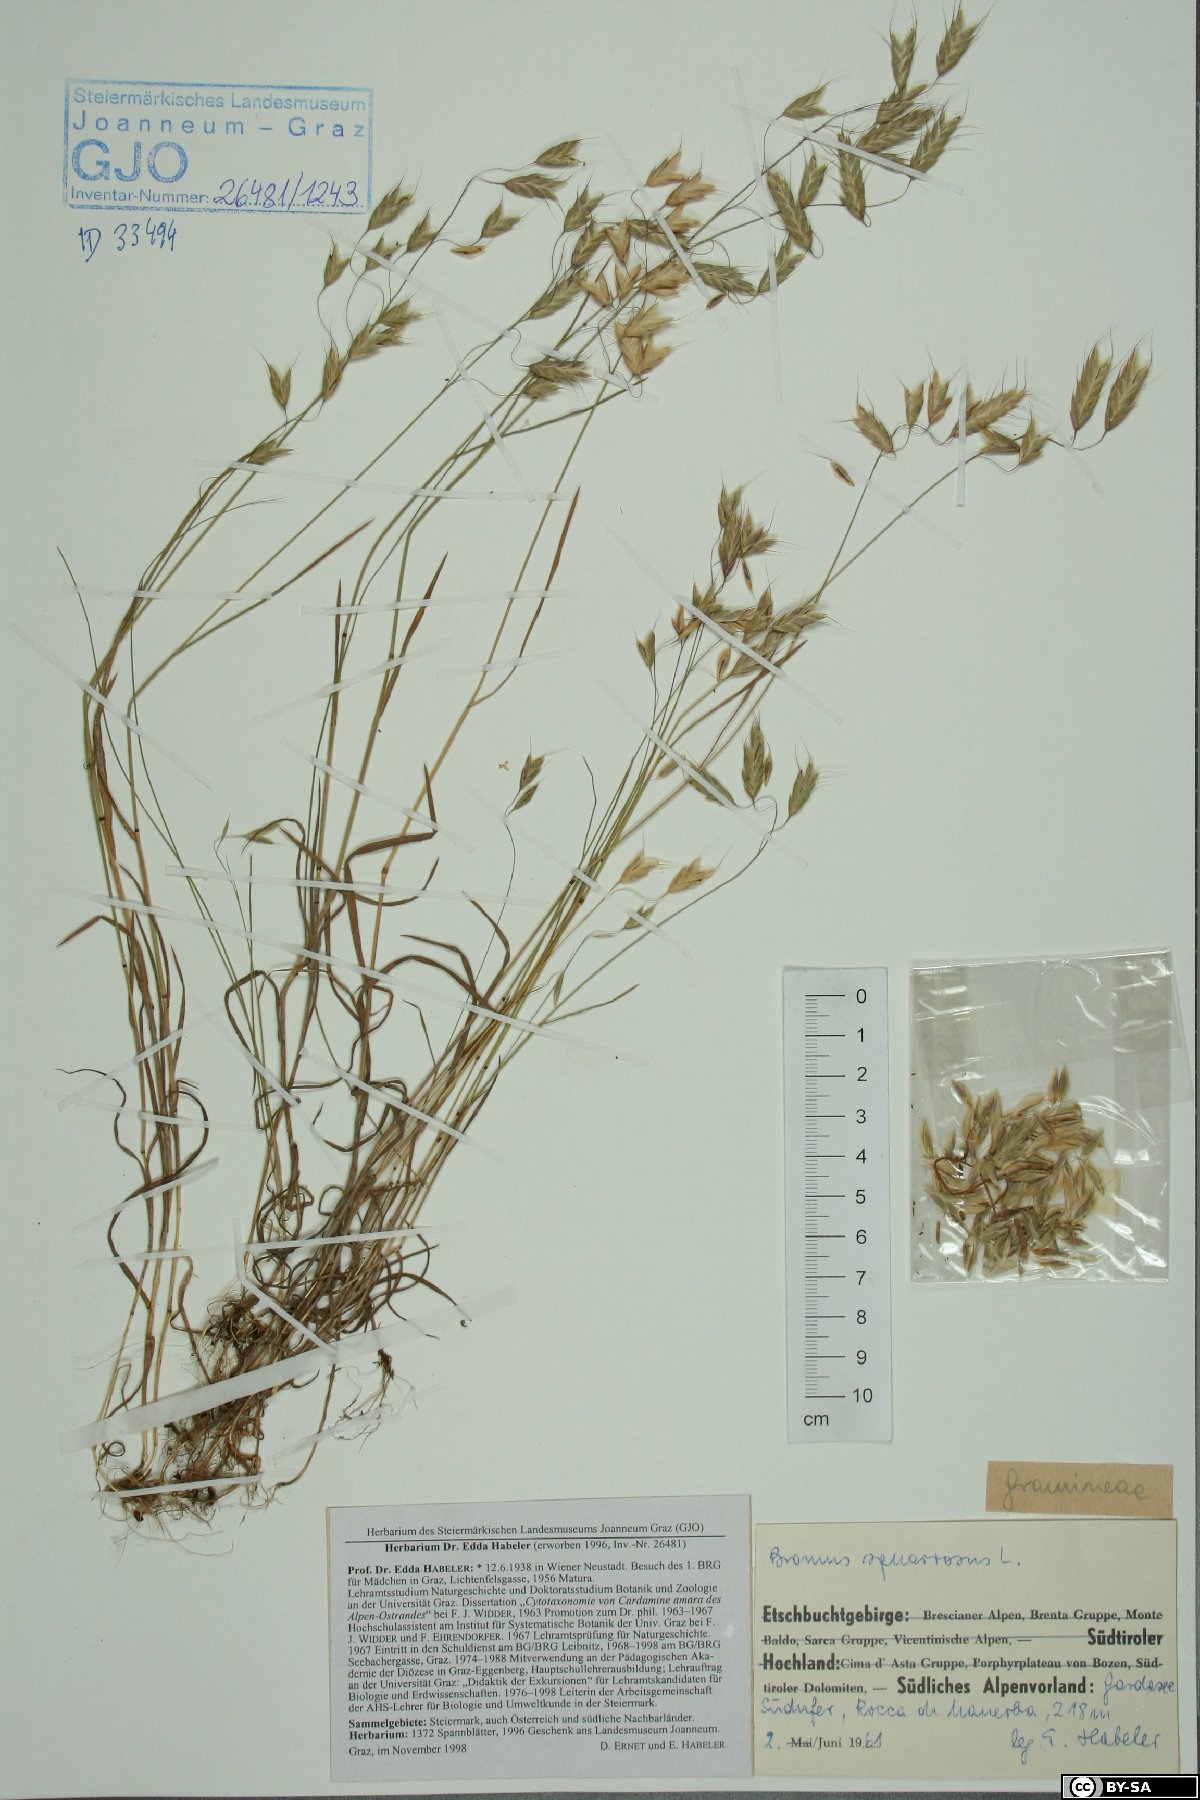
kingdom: Plantae
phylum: Tracheophyta
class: Liliopsida
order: Poales
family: Poaceae
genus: Bromus
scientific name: Bromus squarrosus
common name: Corn brome
